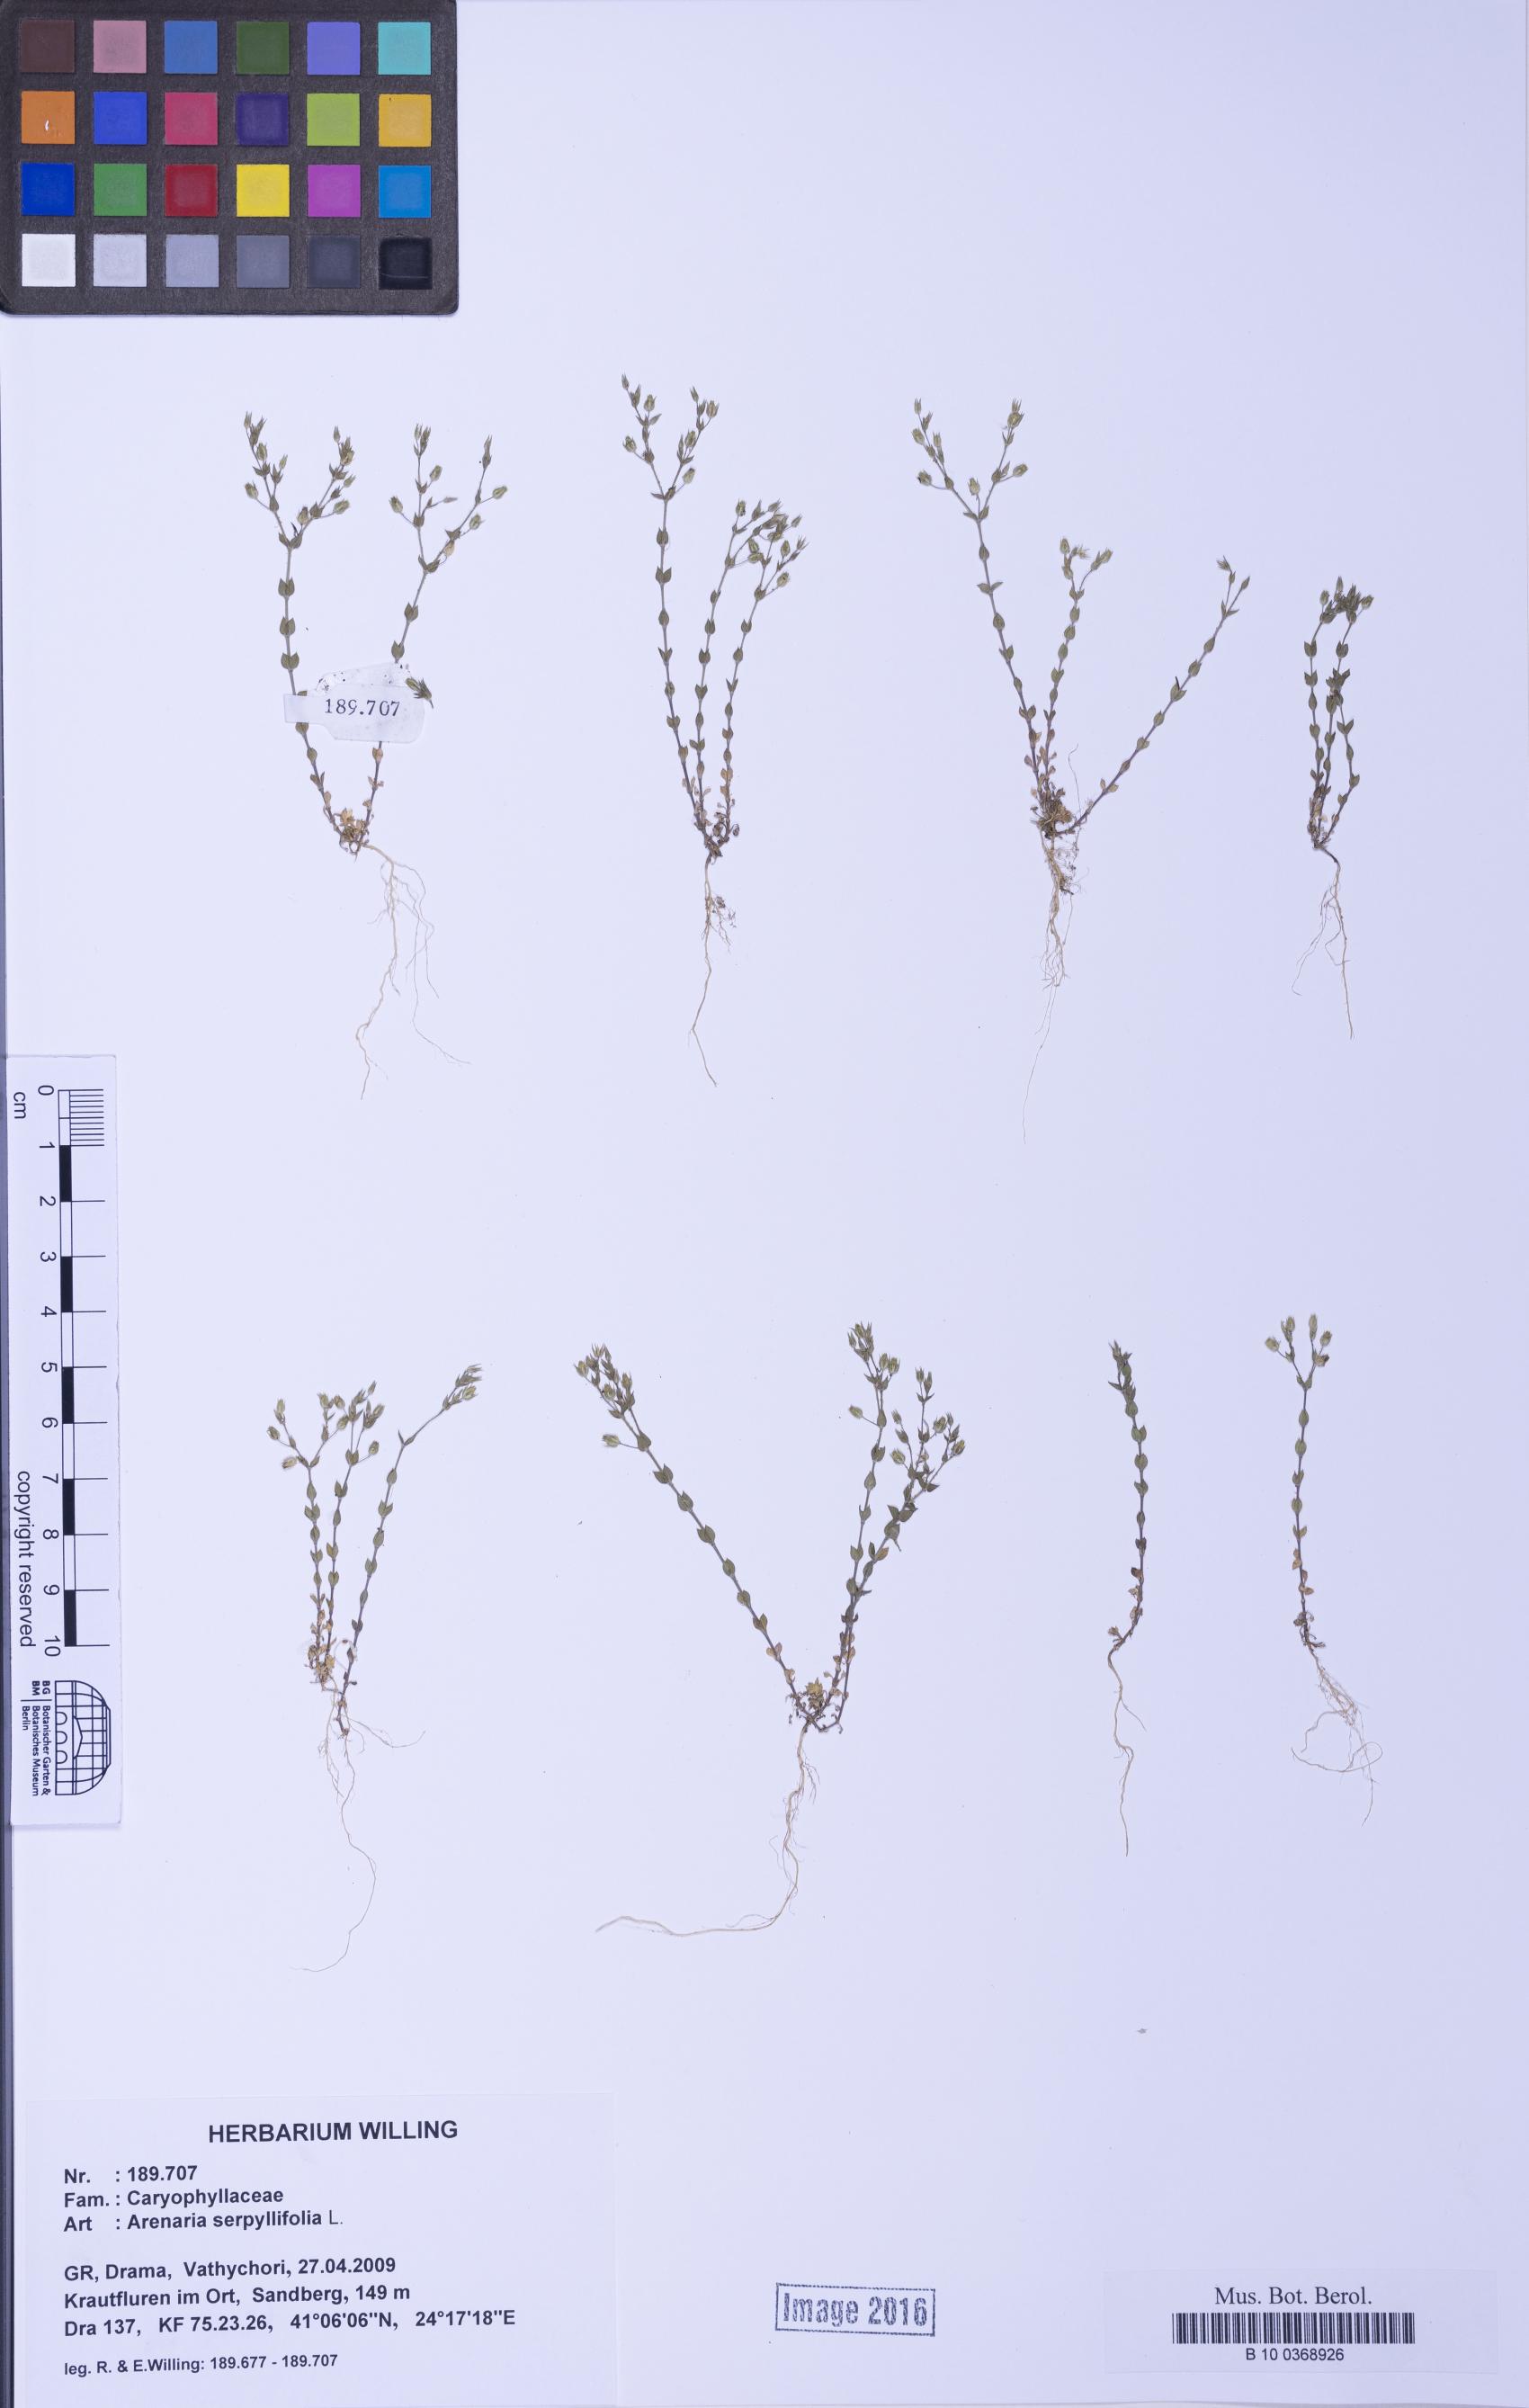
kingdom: Plantae
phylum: Tracheophyta
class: Magnoliopsida
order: Caryophyllales
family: Caryophyllaceae
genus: Arenaria
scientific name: Arenaria serpyllifolia
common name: Thyme-leaved sandwort
